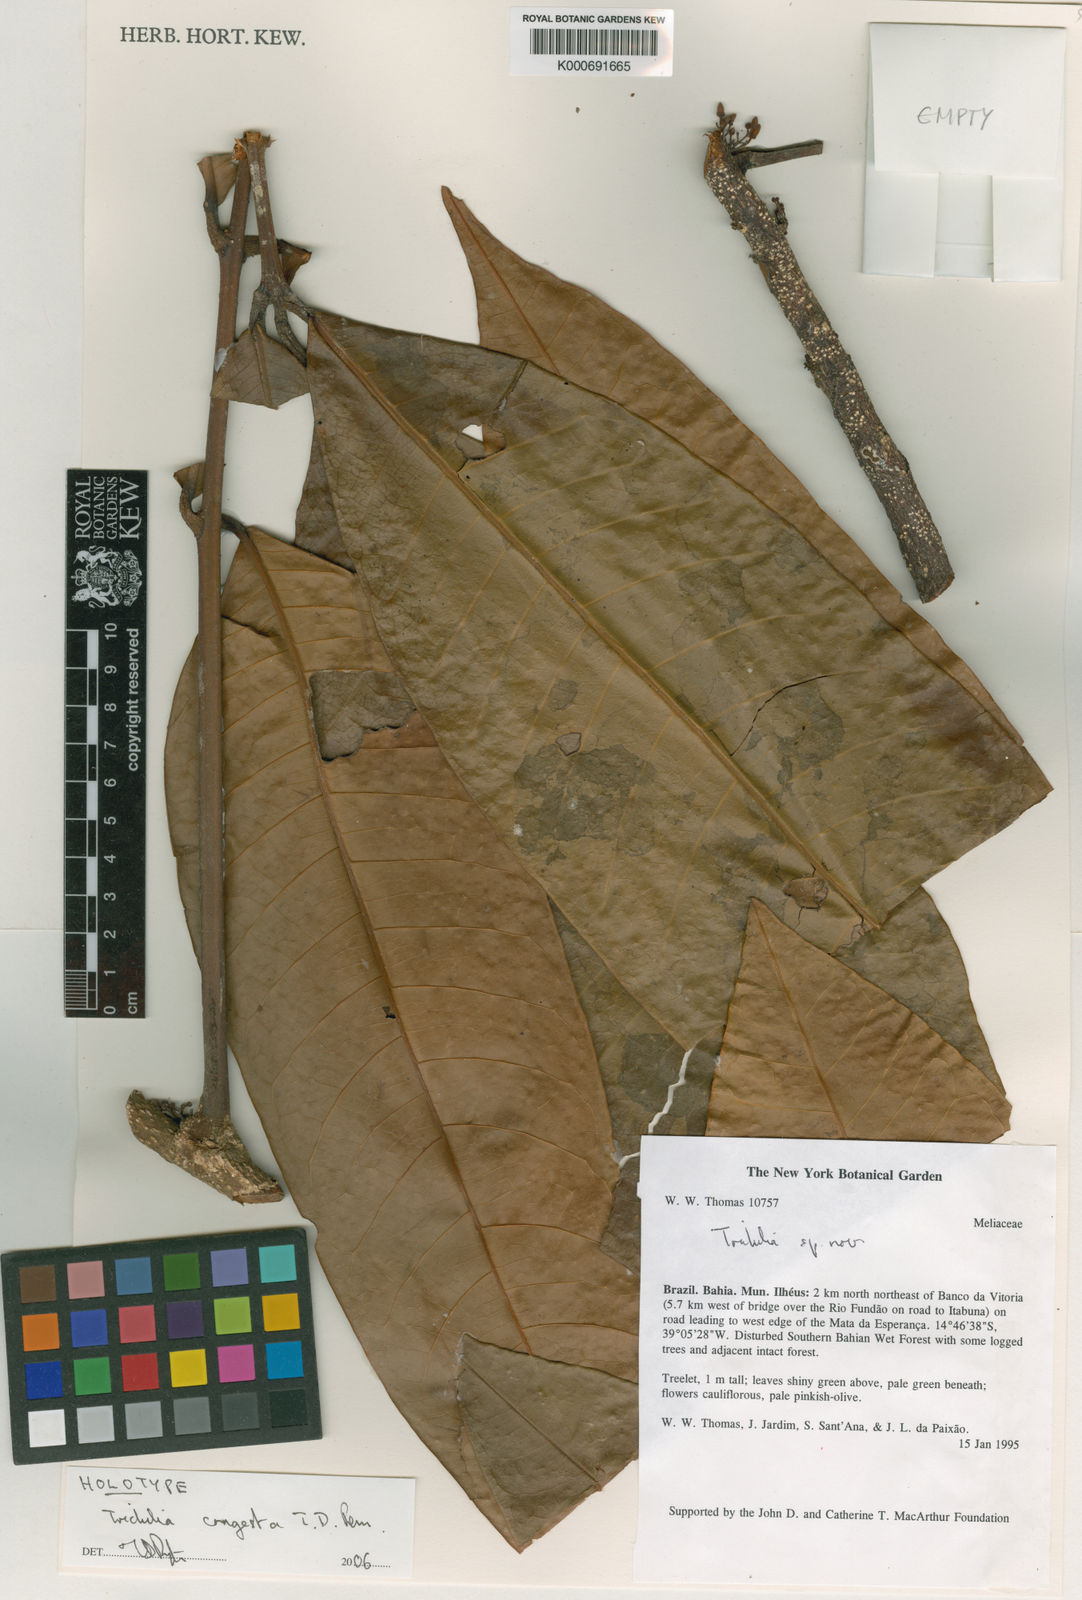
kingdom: Plantae
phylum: Tracheophyta
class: Magnoliopsida
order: Sapindales
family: Meliaceae
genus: Trichilia
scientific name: Trichilia congesta
